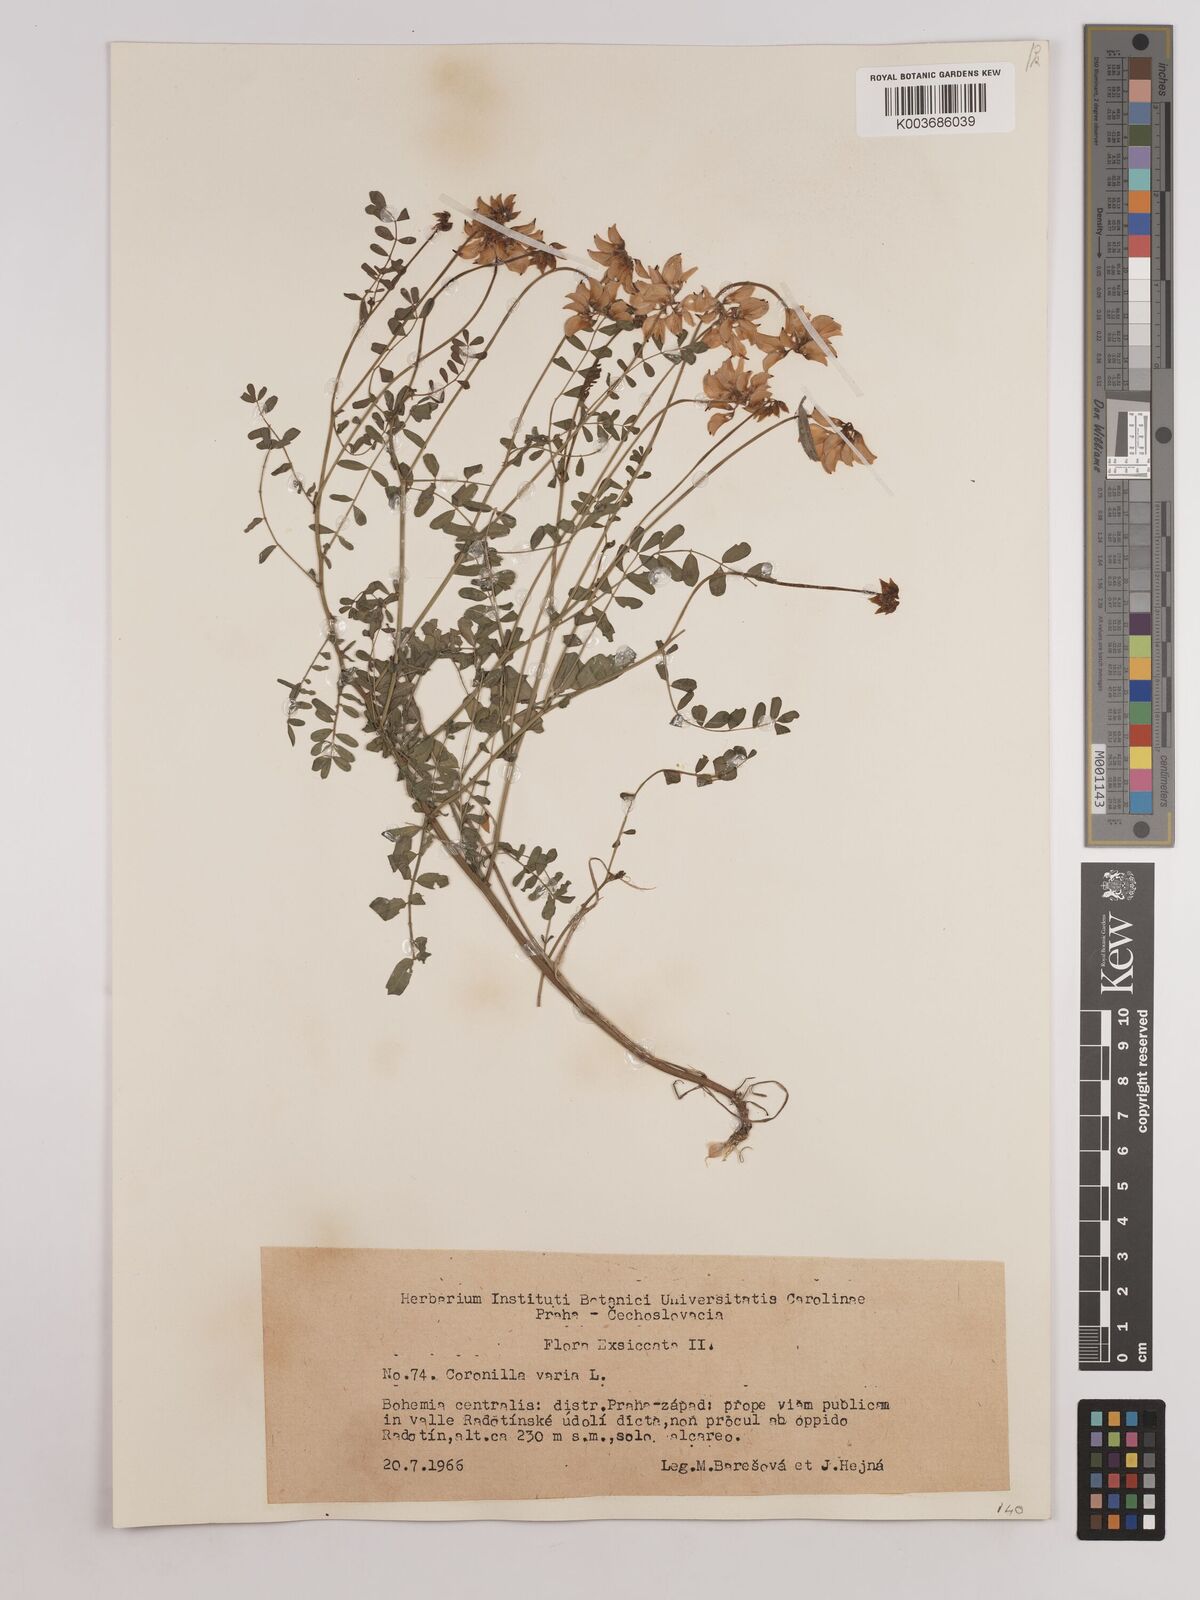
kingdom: Plantae
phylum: Tracheophyta
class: Magnoliopsida
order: Fabales
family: Fabaceae
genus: Coronilla
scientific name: Coronilla varia
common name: Crownvetch
